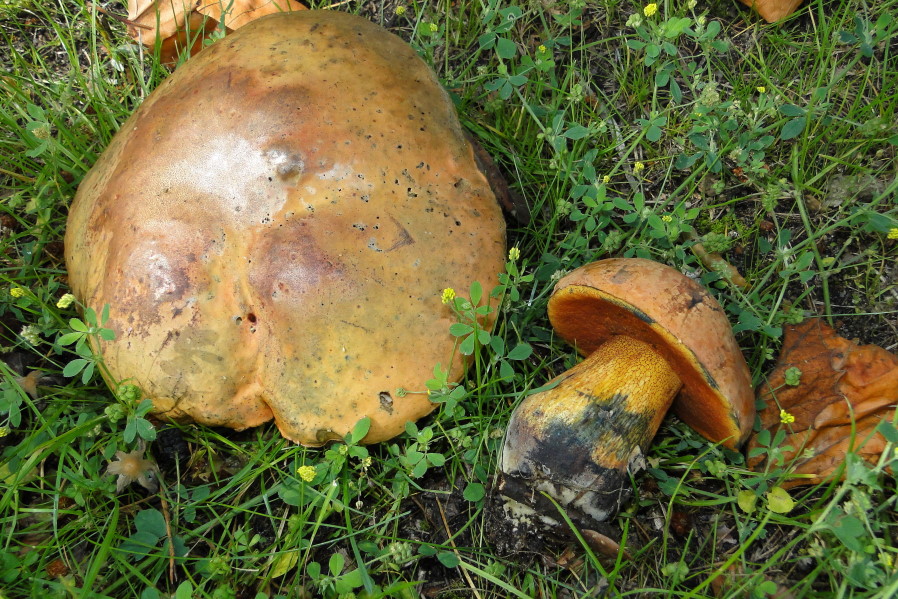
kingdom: Fungi
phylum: Basidiomycota
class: Agaricomycetes
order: Boletales
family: Boletaceae
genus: Neoboletus
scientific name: Neoboletus erythropus
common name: punktstokket indigorørhat
